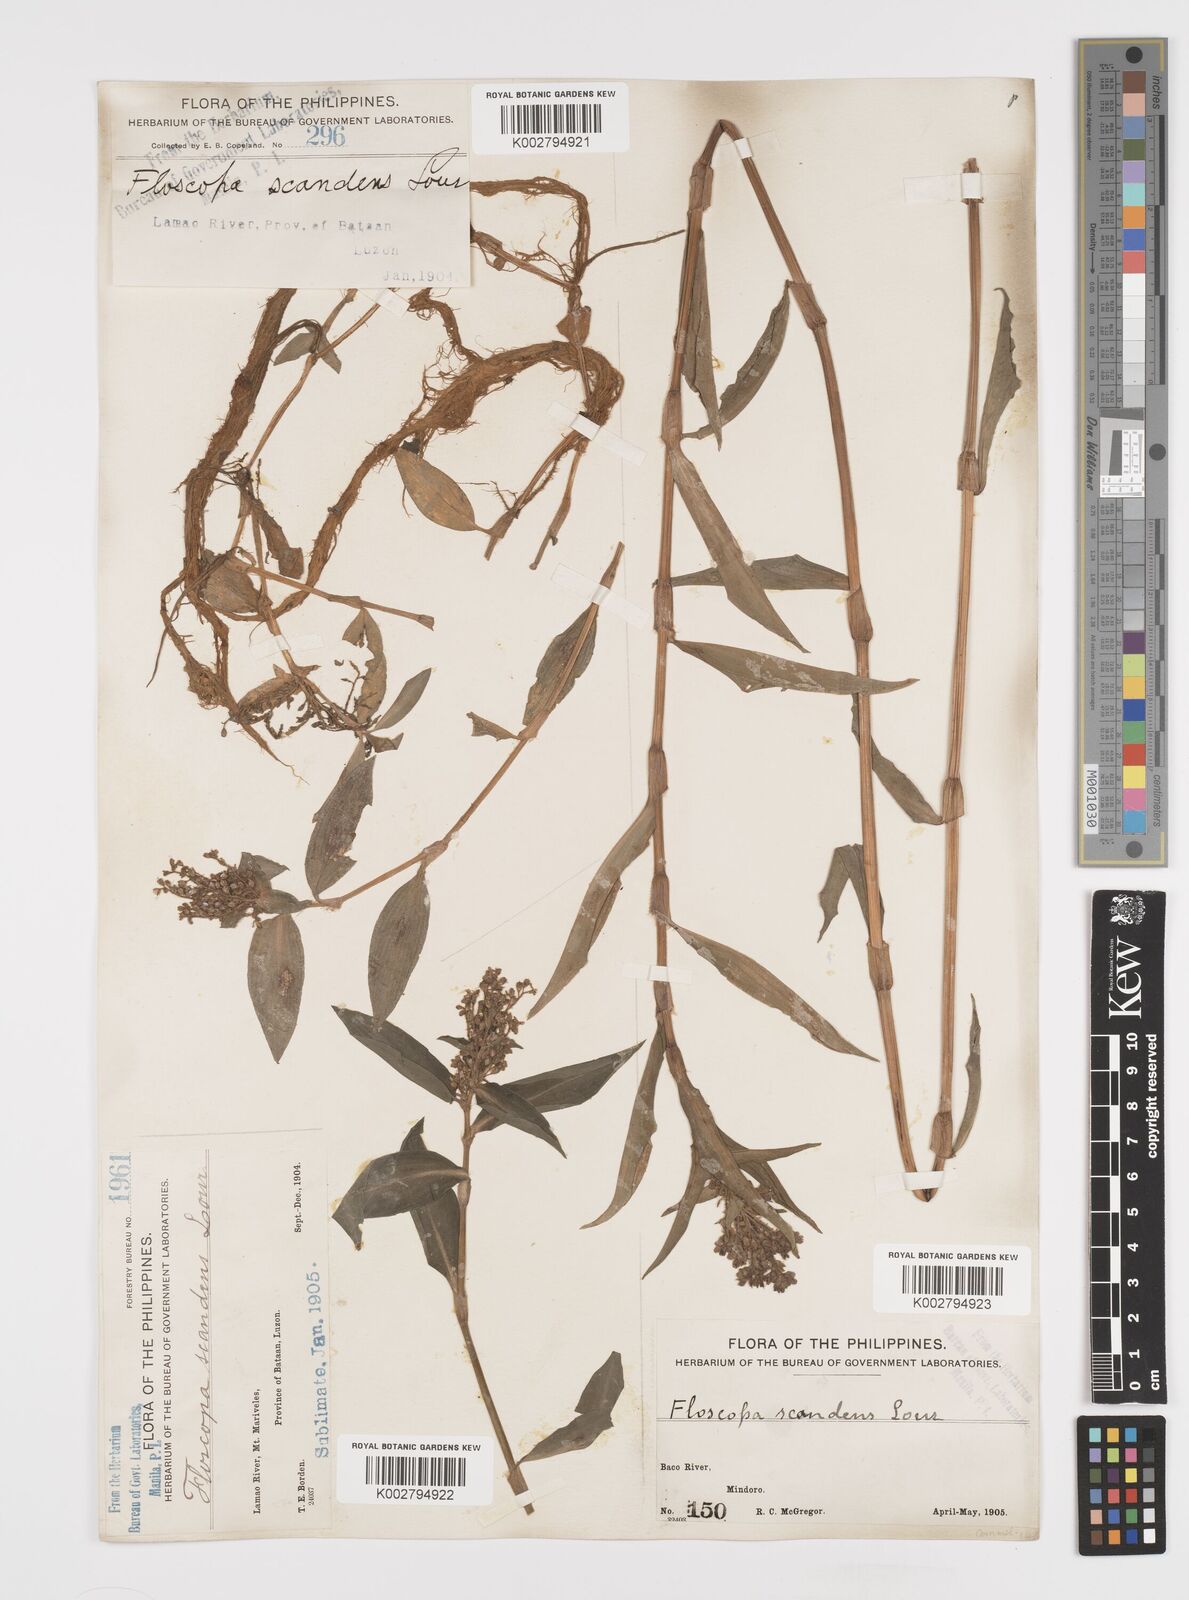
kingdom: Plantae
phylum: Tracheophyta
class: Liliopsida
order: Commelinales
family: Commelinaceae
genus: Floscopa
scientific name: Floscopa scandens
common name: Climbing flower cup
